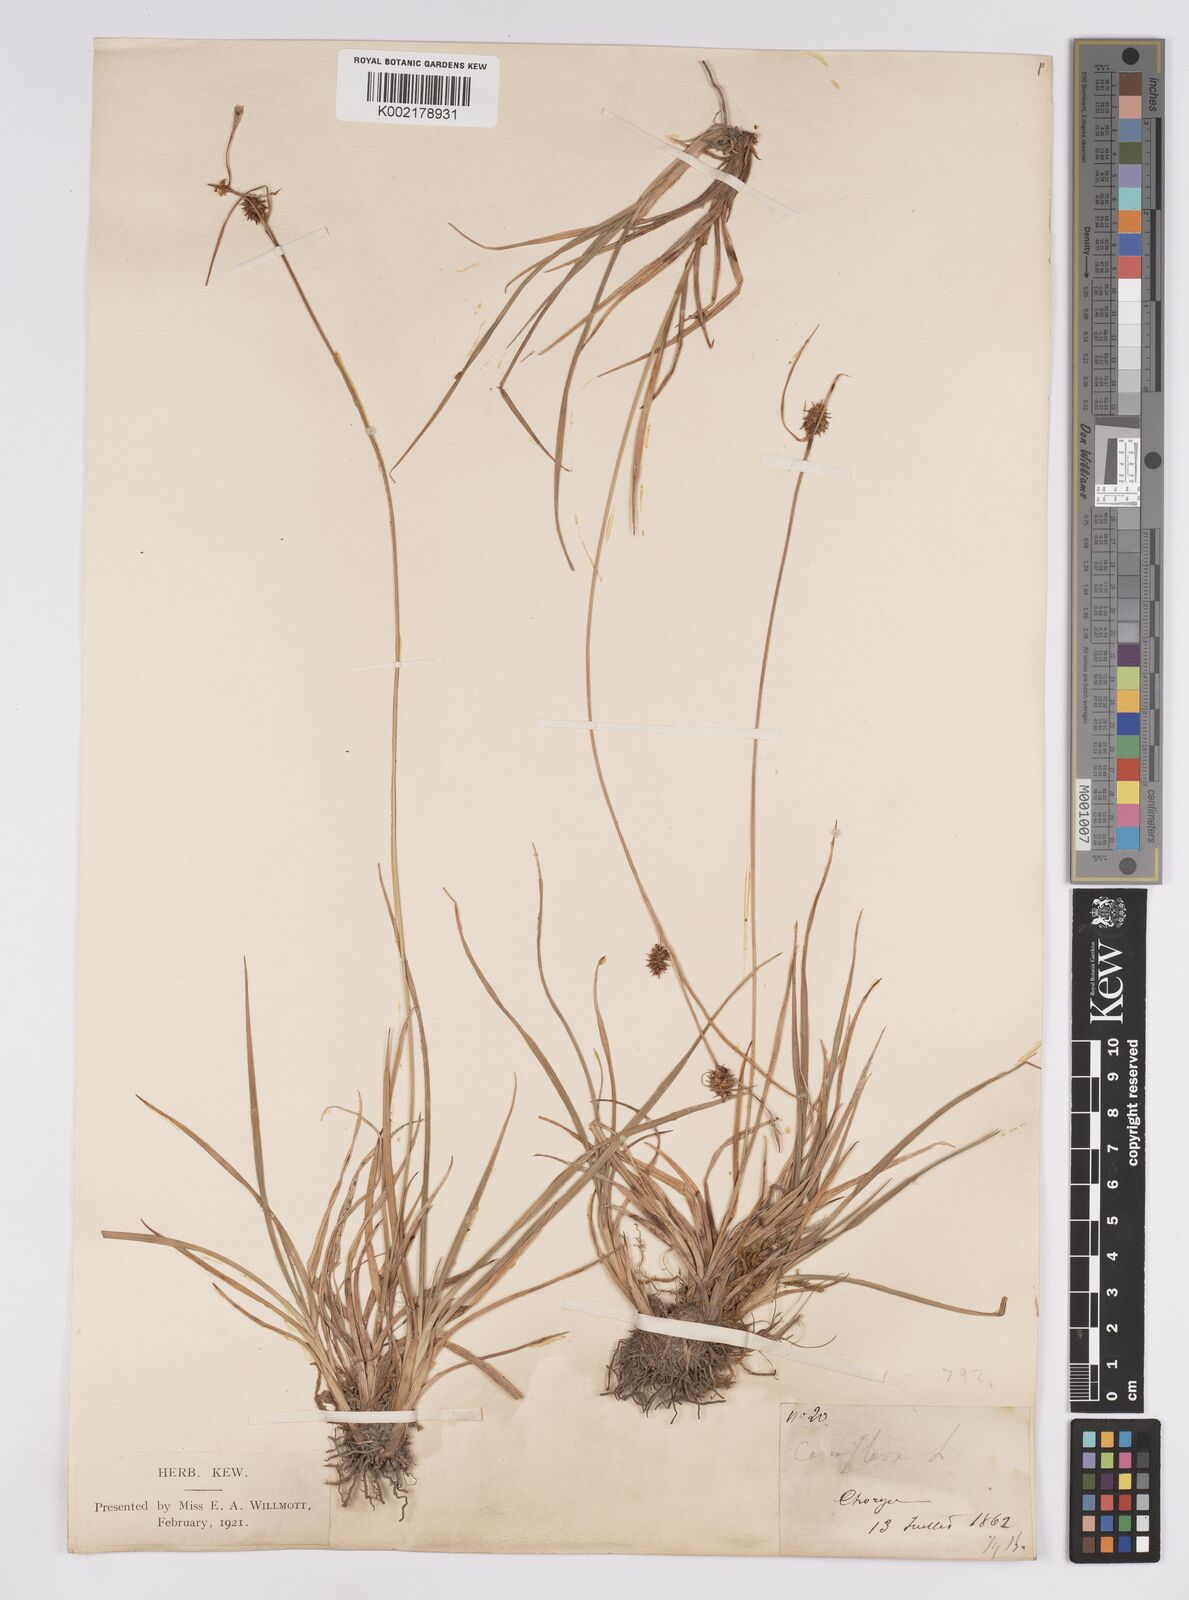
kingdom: Plantae
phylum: Tracheophyta
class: Liliopsida
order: Poales
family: Cyperaceae
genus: Carex
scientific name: Carex lepidocarpa
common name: Long-stalked yellow-sedge
